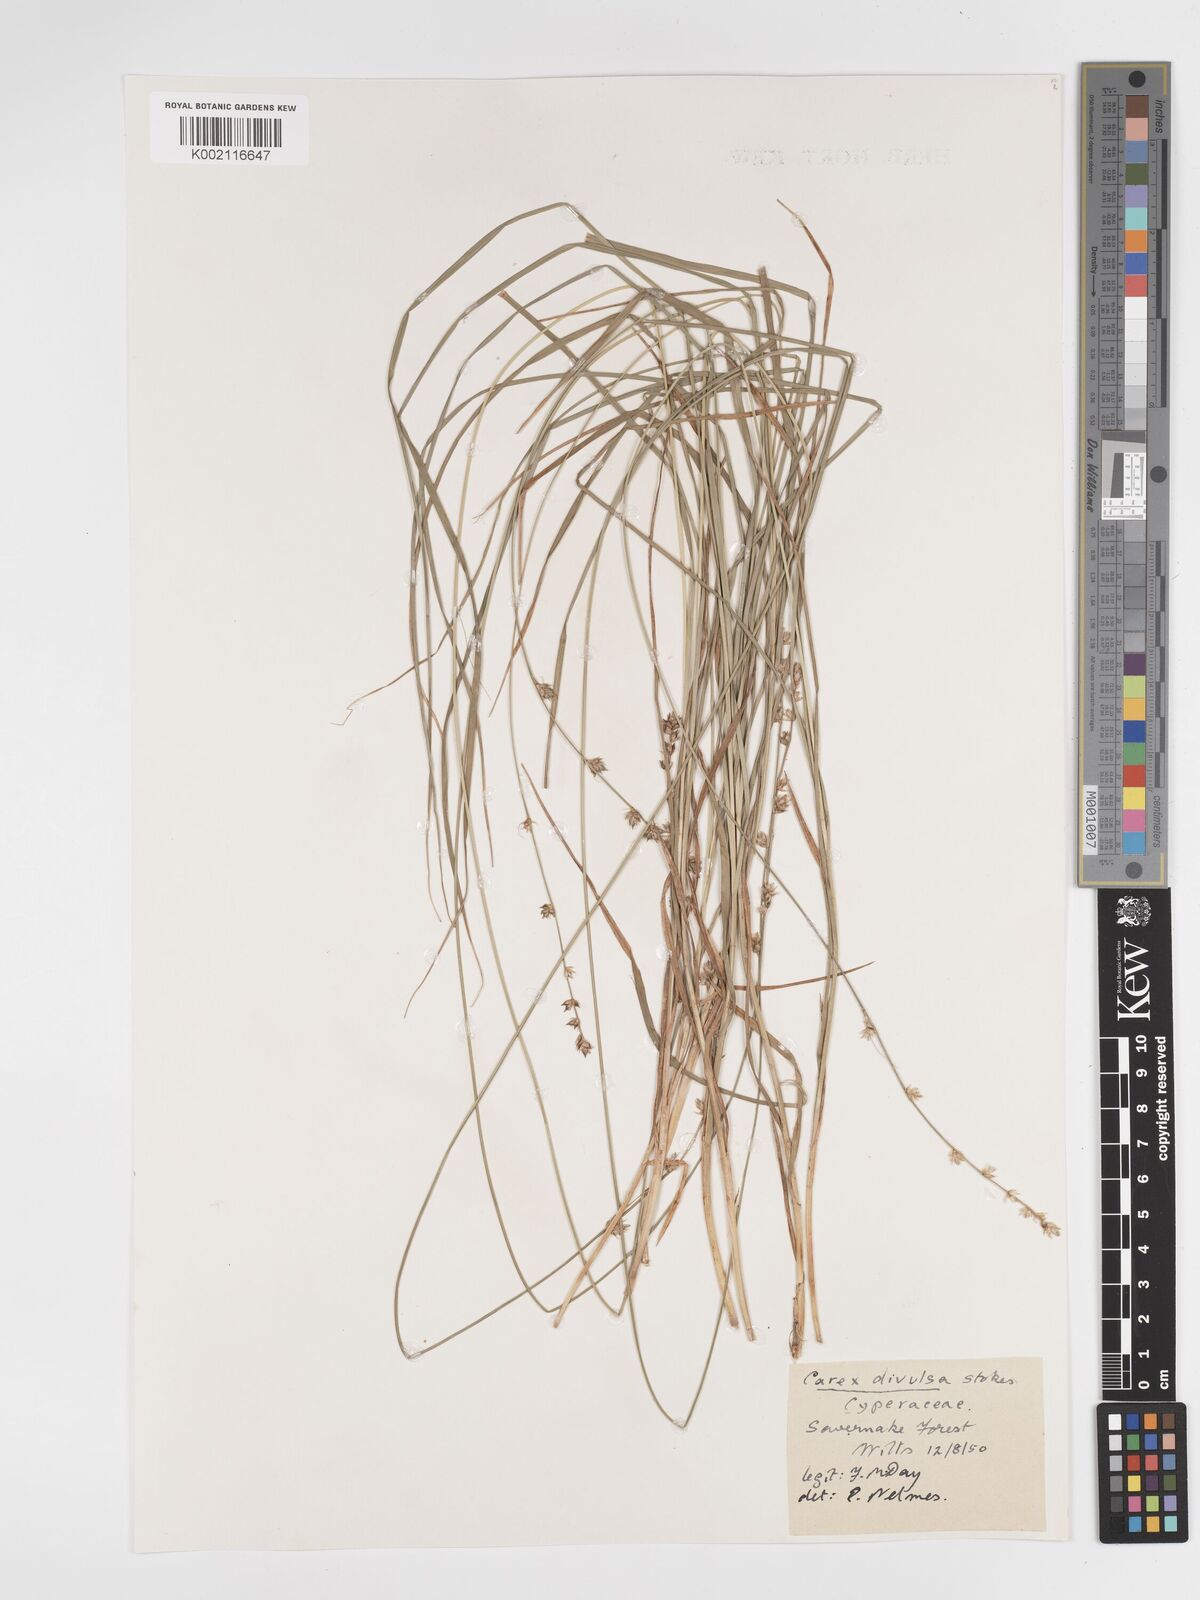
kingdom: Plantae
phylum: Tracheophyta
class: Liliopsida
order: Poales
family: Cyperaceae
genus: Carex
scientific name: Carex divulsa
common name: Grassland sedge
